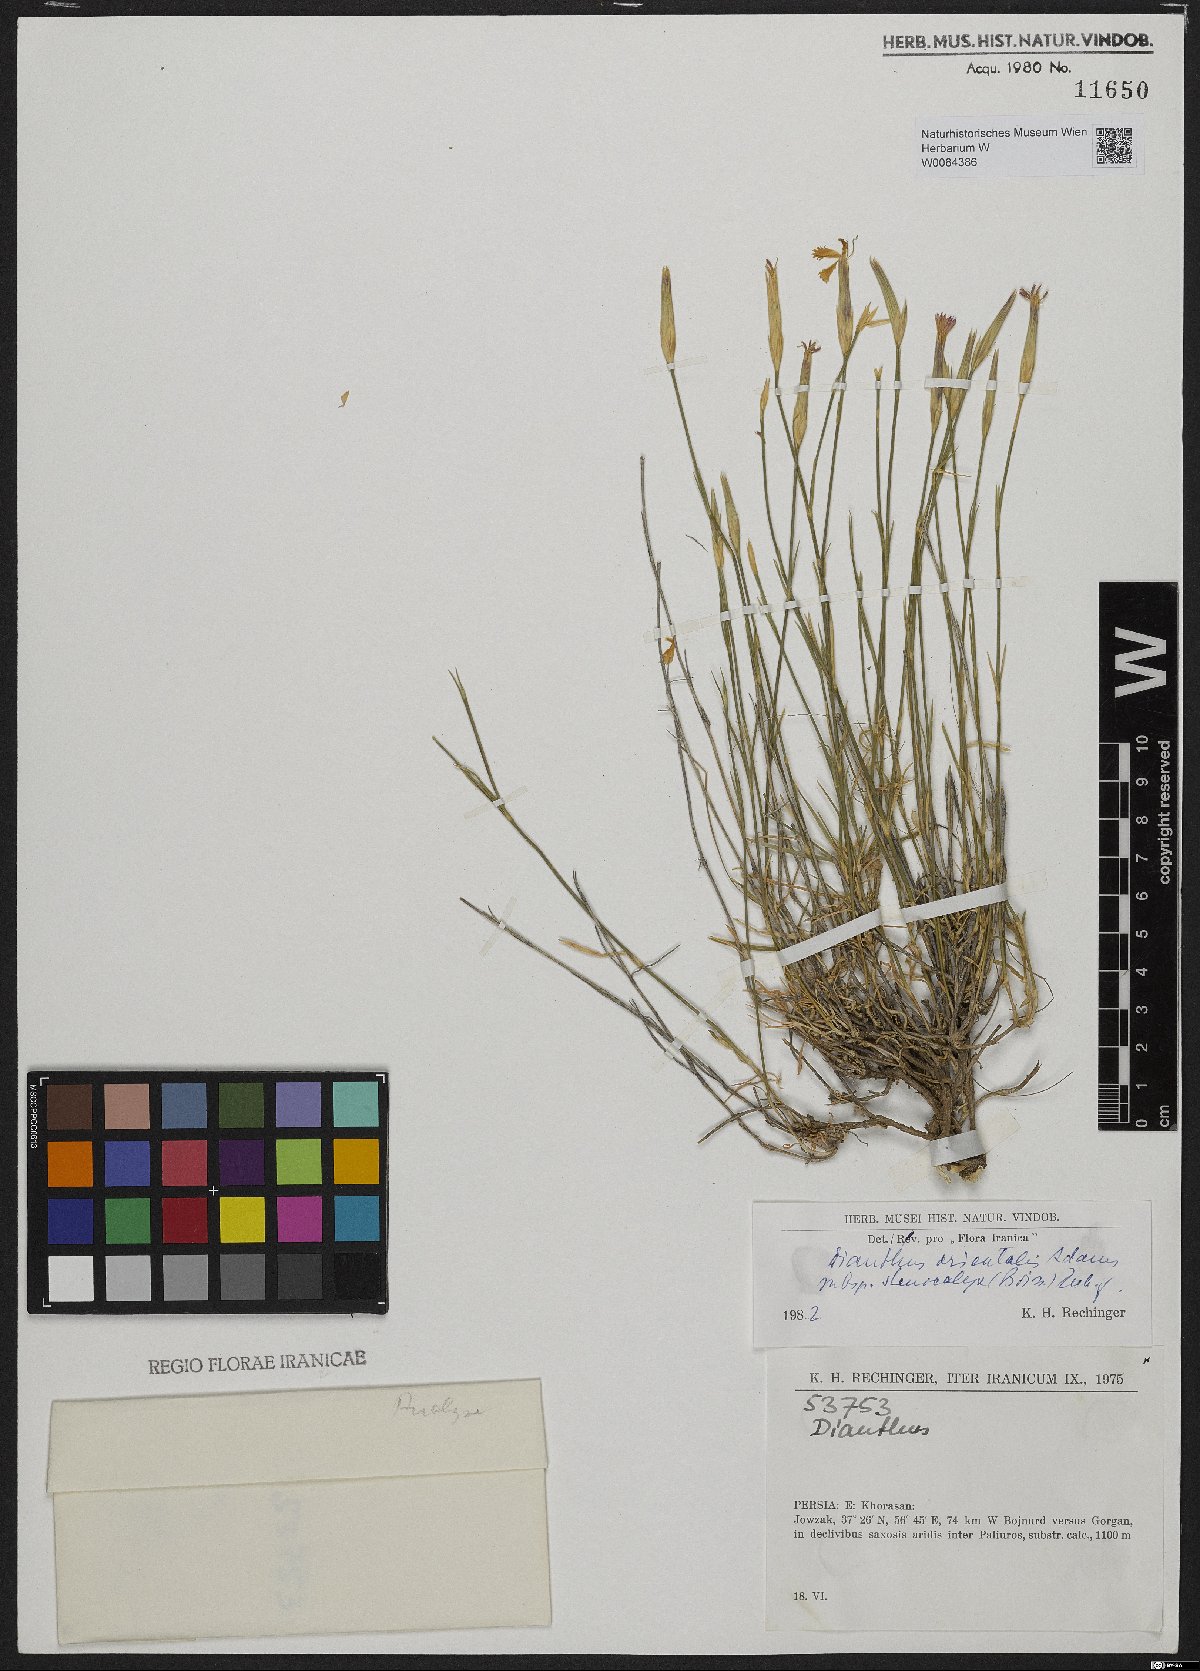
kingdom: Plantae
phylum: Tracheophyta
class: Magnoliopsida
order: Caryophyllales
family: Caryophyllaceae
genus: Dianthus
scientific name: Dianthus orientalis
